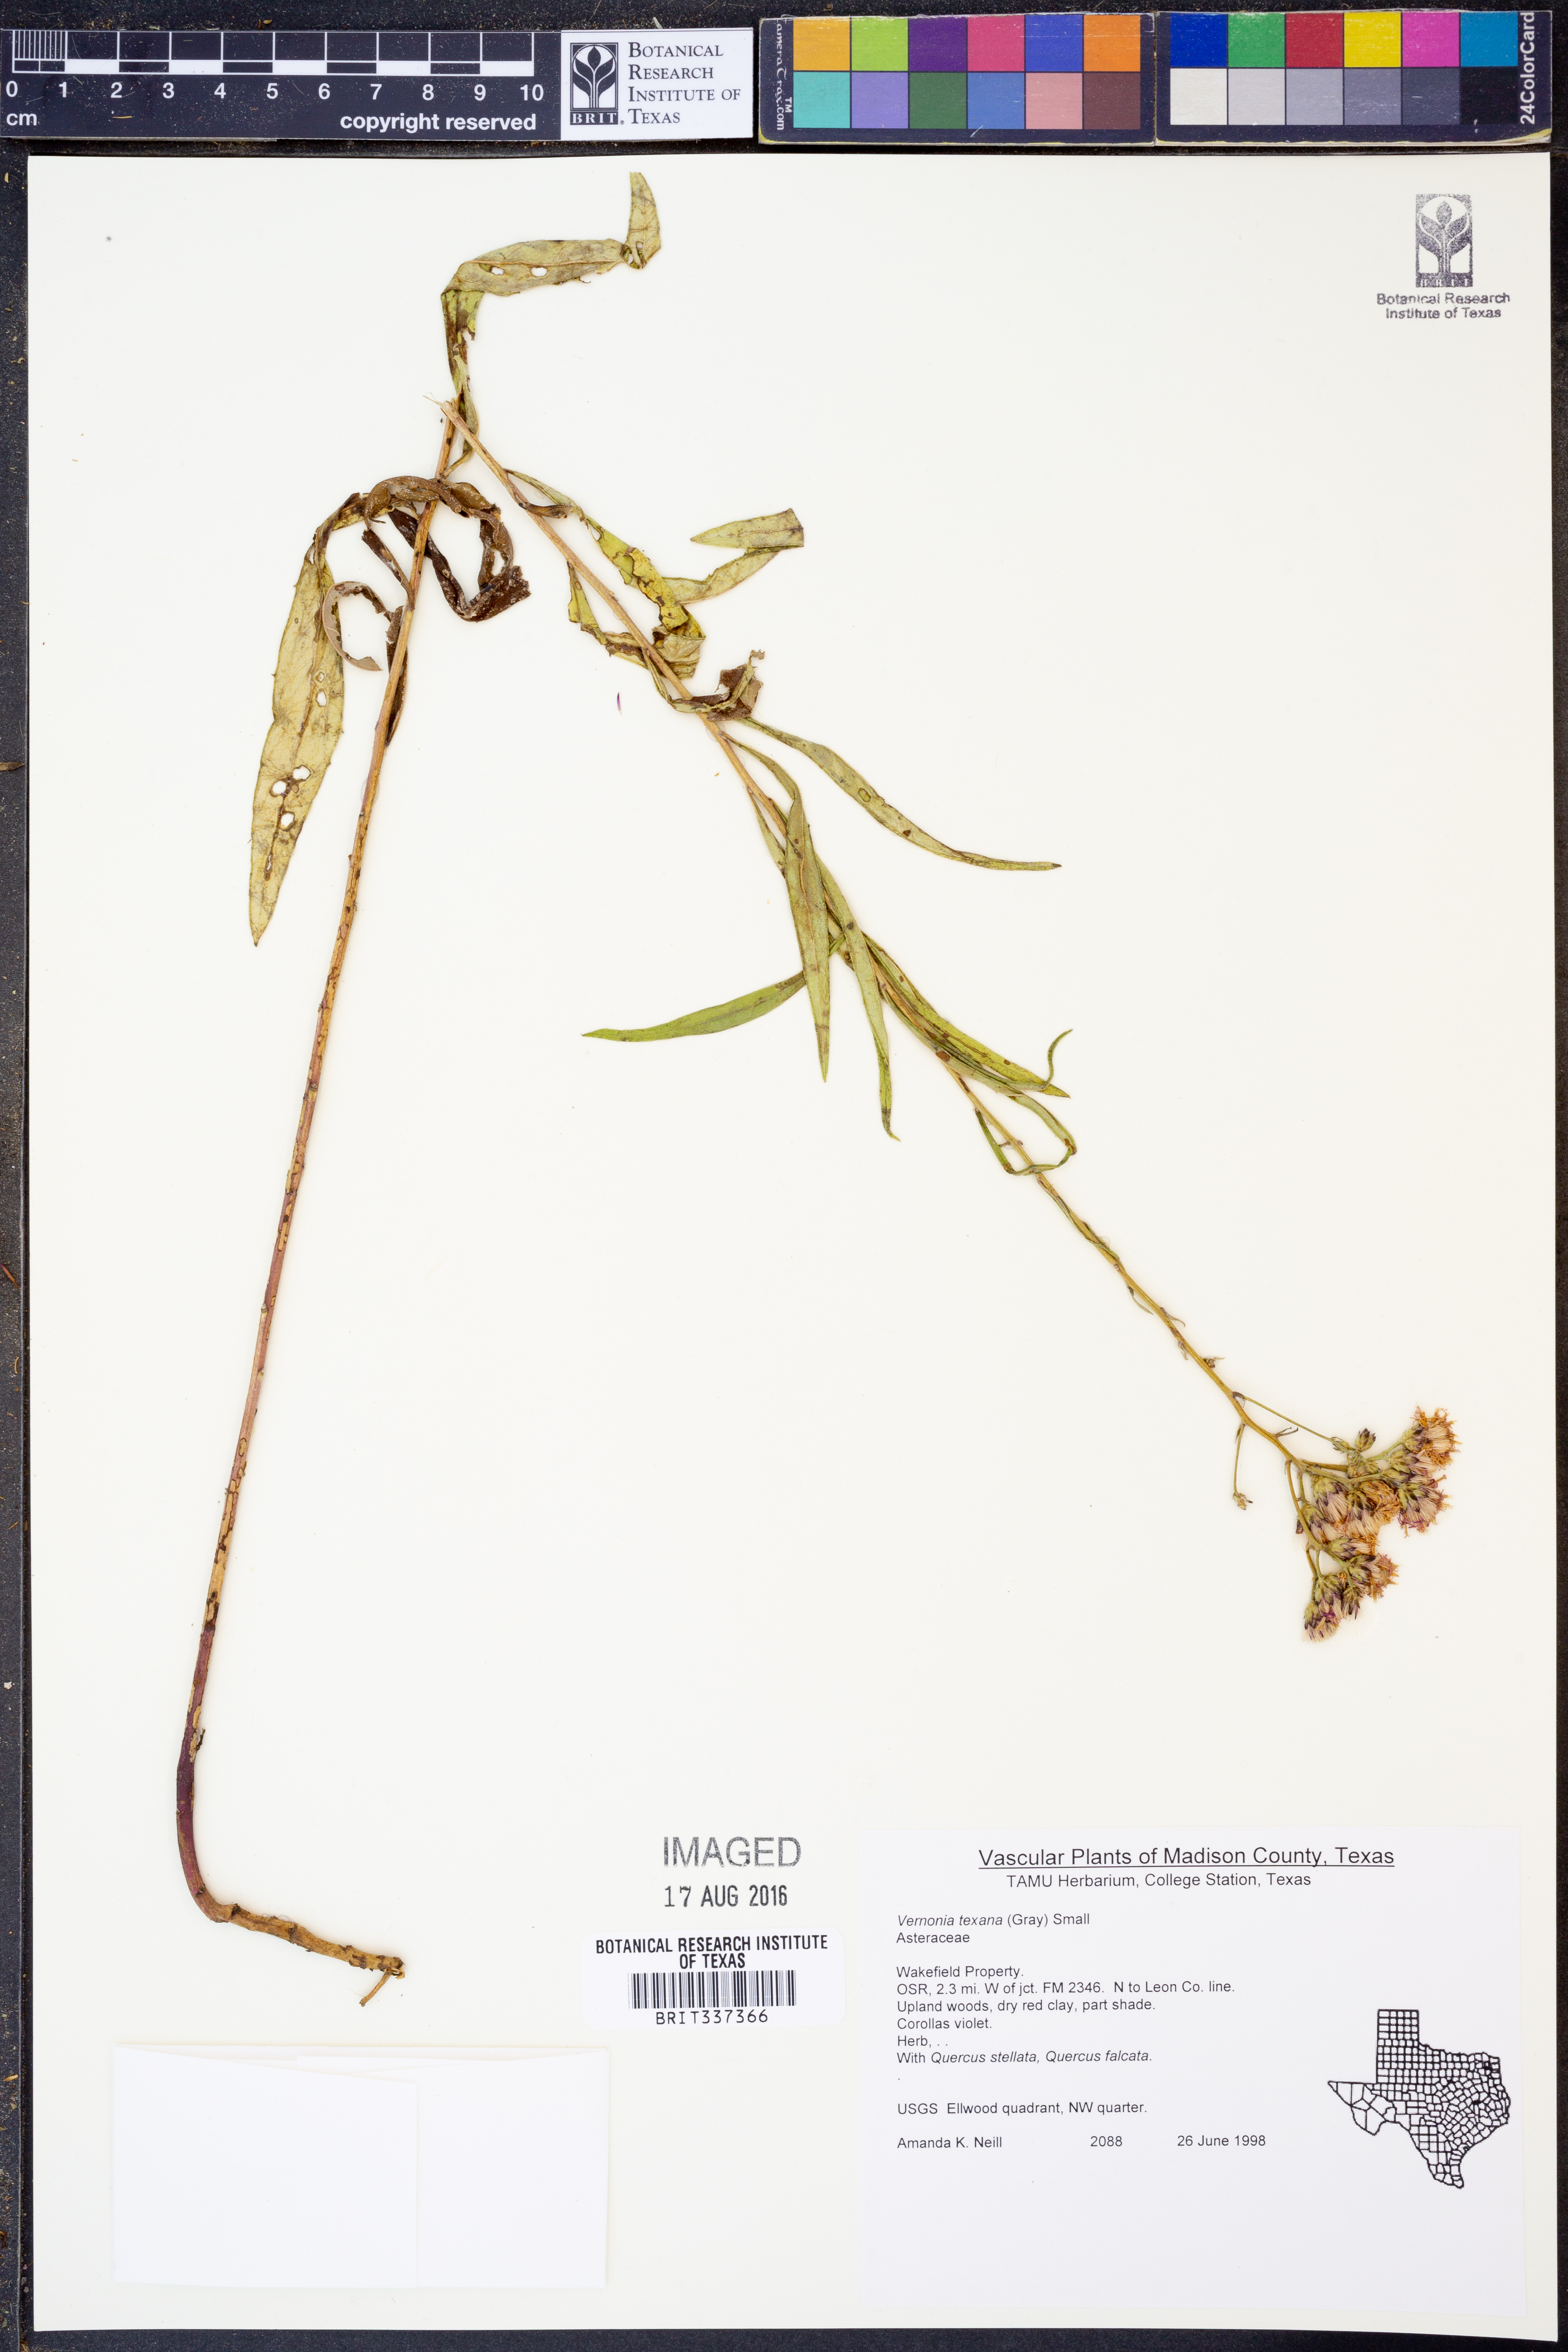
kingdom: Plantae
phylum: Tracheophyta
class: Magnoliopsida
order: Asterales
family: Asteraceae
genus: Vernonia
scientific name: Vernonia texana
